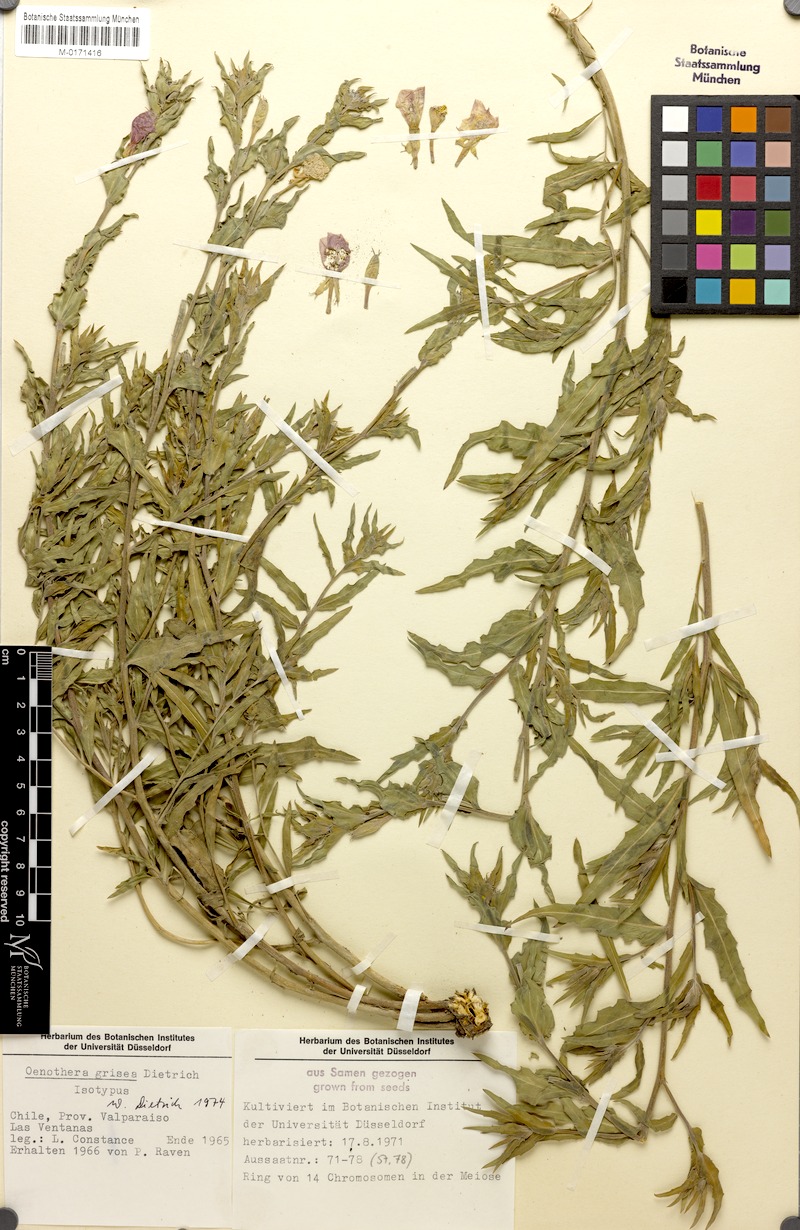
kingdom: Plantae
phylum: Tracheophyta
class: Magnoliopsida
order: Myrtales
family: Onagraceae
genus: Oenothera
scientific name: Oenothera grisea
